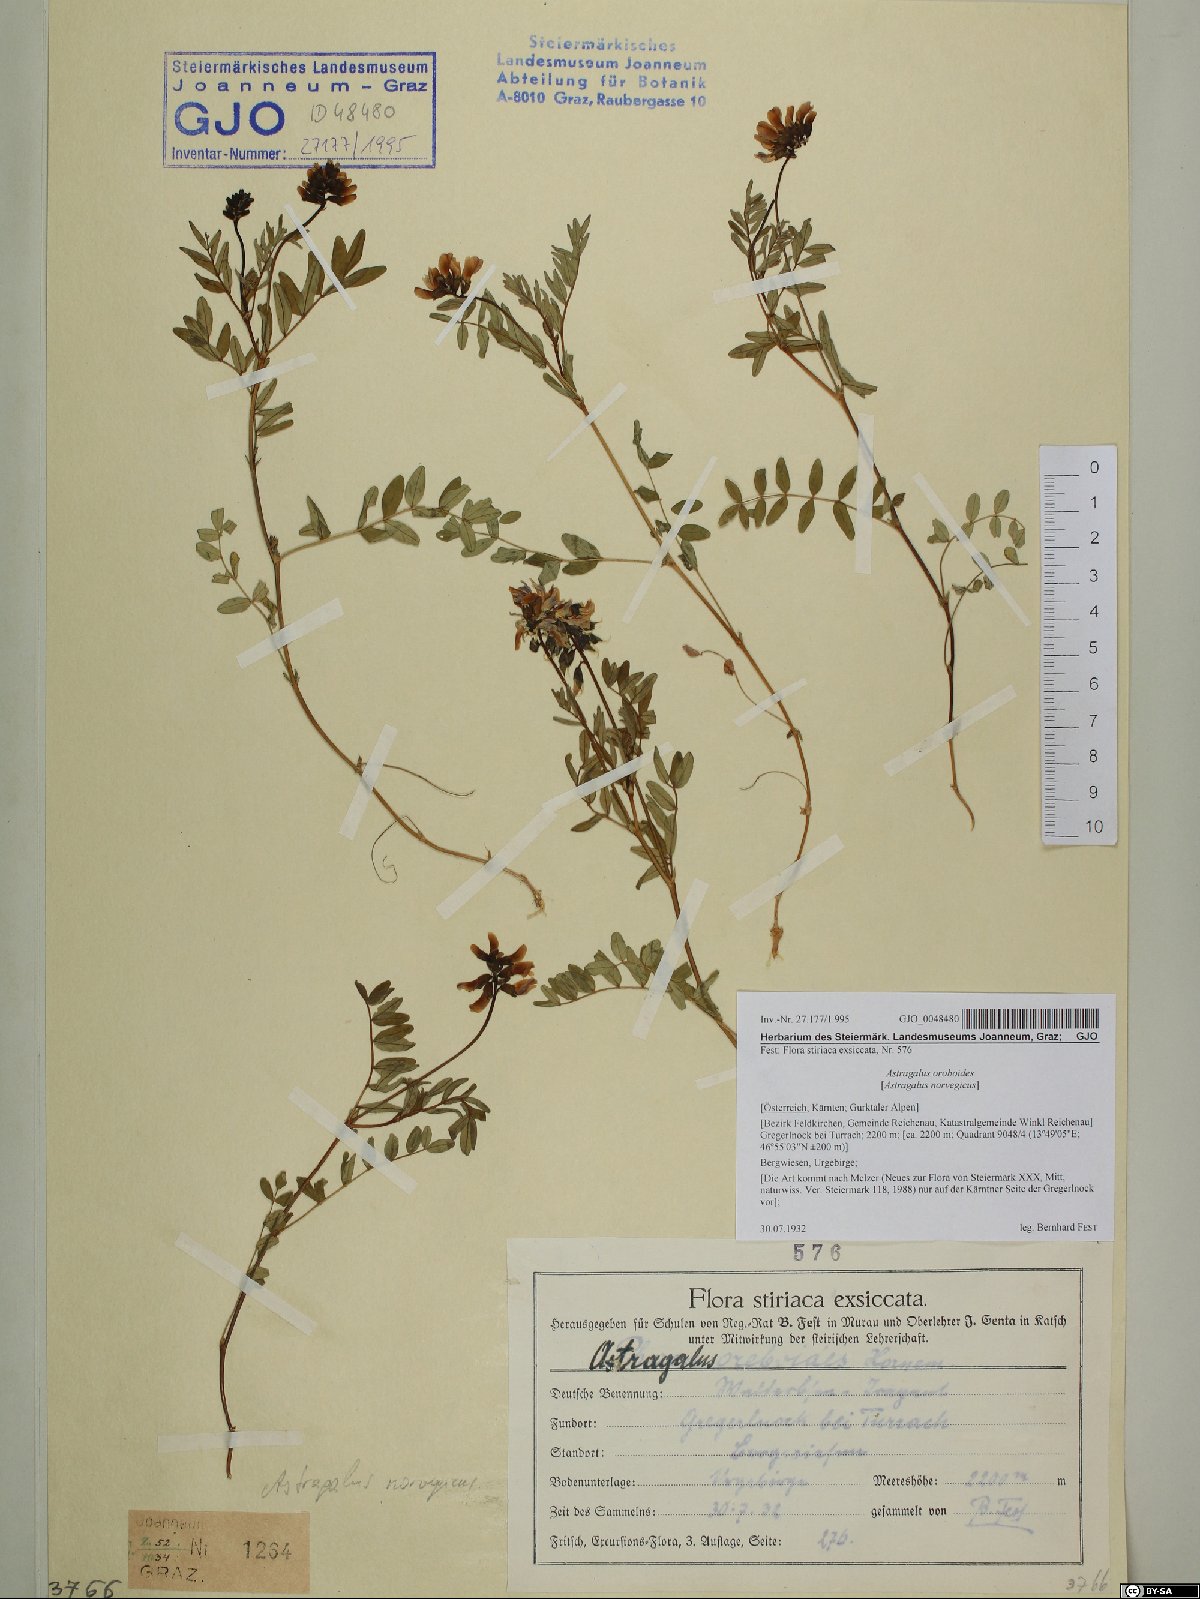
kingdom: Plantae
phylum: Tracheophyta
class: Magnoliopsida
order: Fabales
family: Fabaceae
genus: Astragalus
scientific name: Astragalus norvegicus
